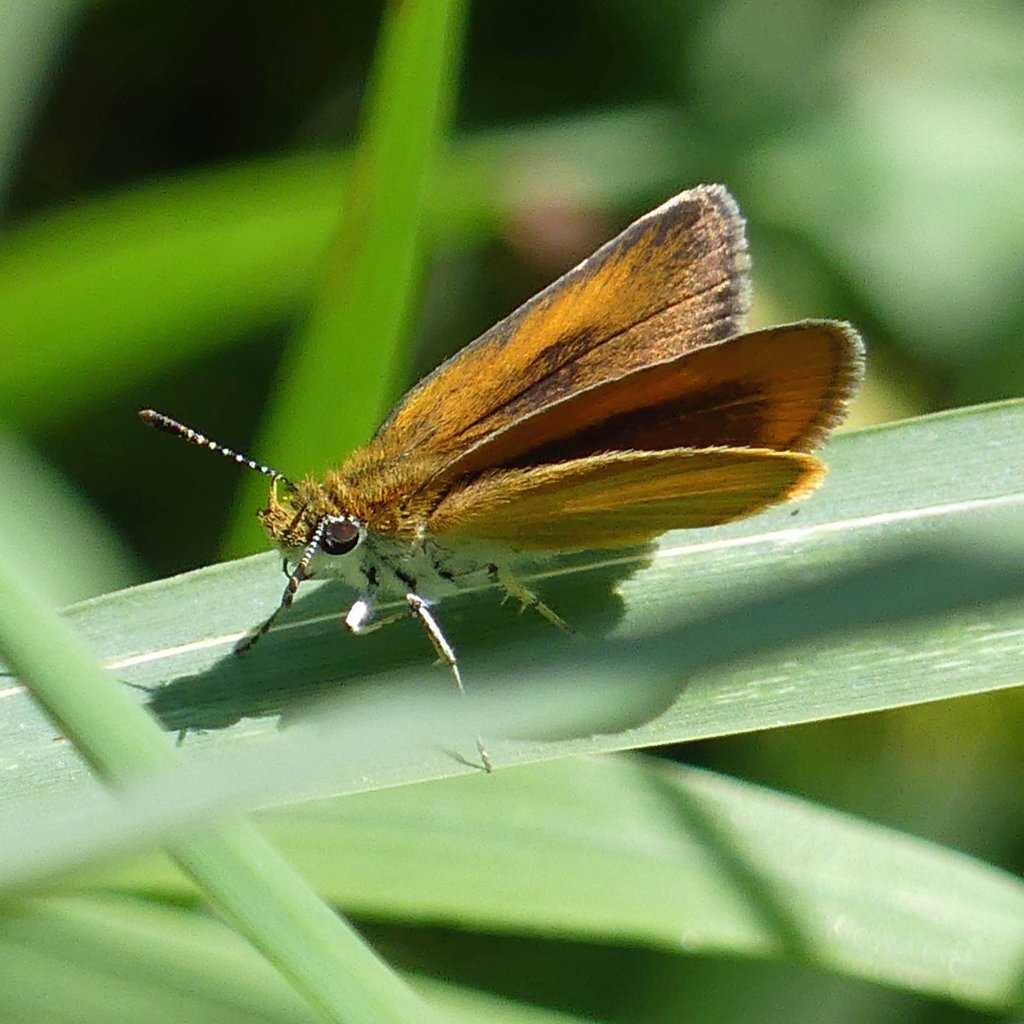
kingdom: Animalia
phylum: Arthropoda
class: Insecta
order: Lepidoptera
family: Hesperiidae
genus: Ancyloxypha
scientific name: Ancyloxypha numitor
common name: Least Skipper
